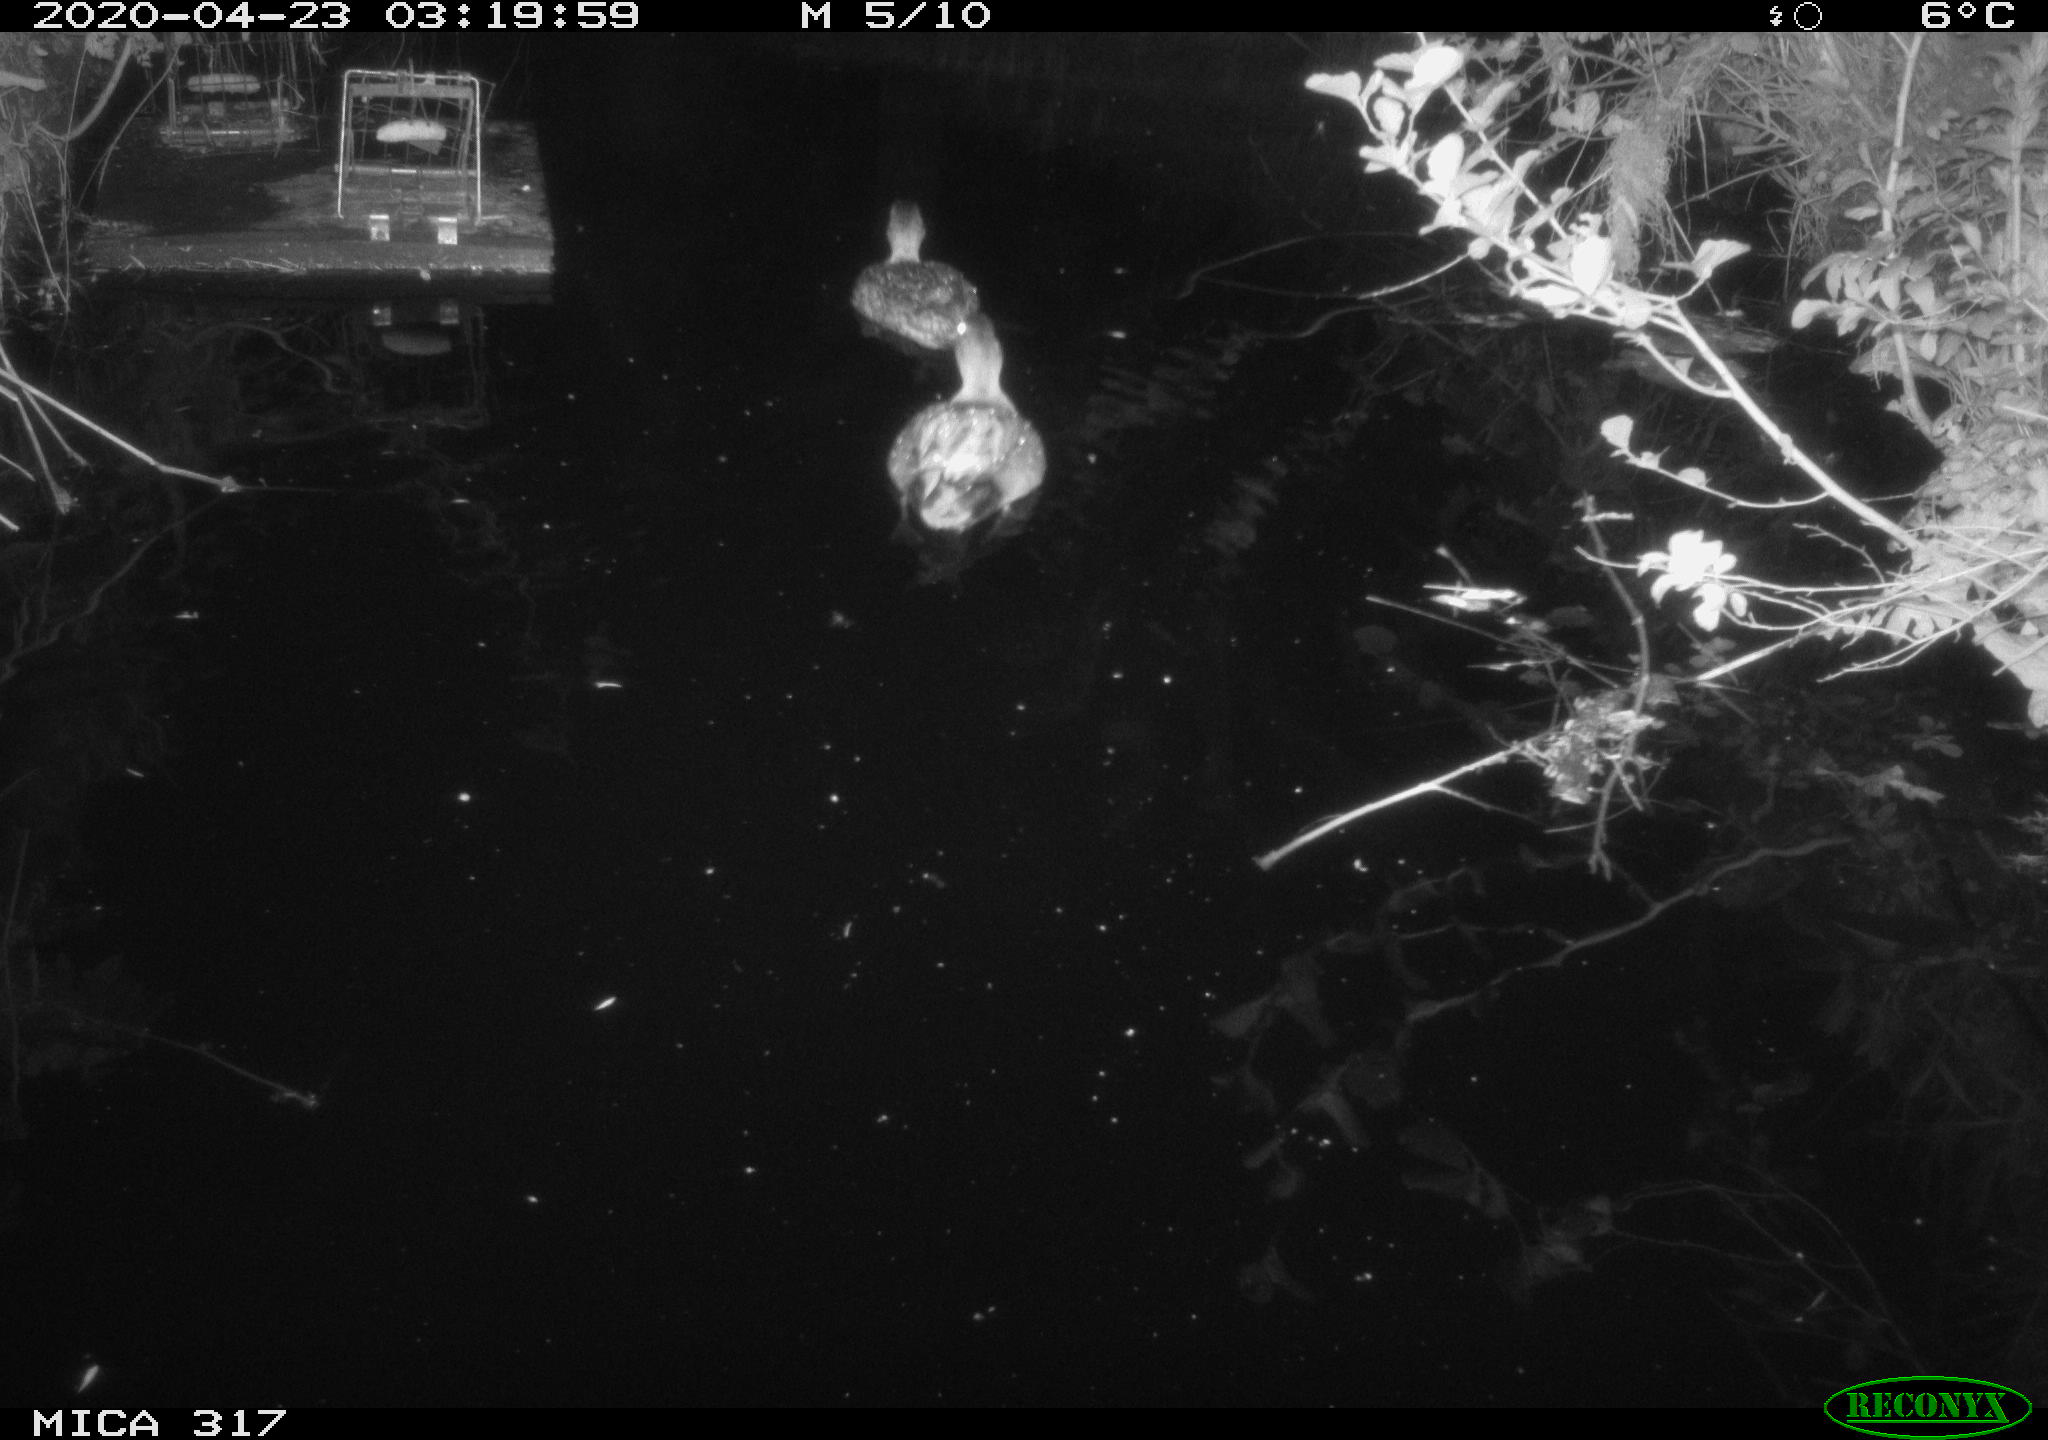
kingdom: Animalia
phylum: Chordata
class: Aves
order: Anseriformes
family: Anatidae
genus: Anas
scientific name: Anas platyrhynchos
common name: Mallard
